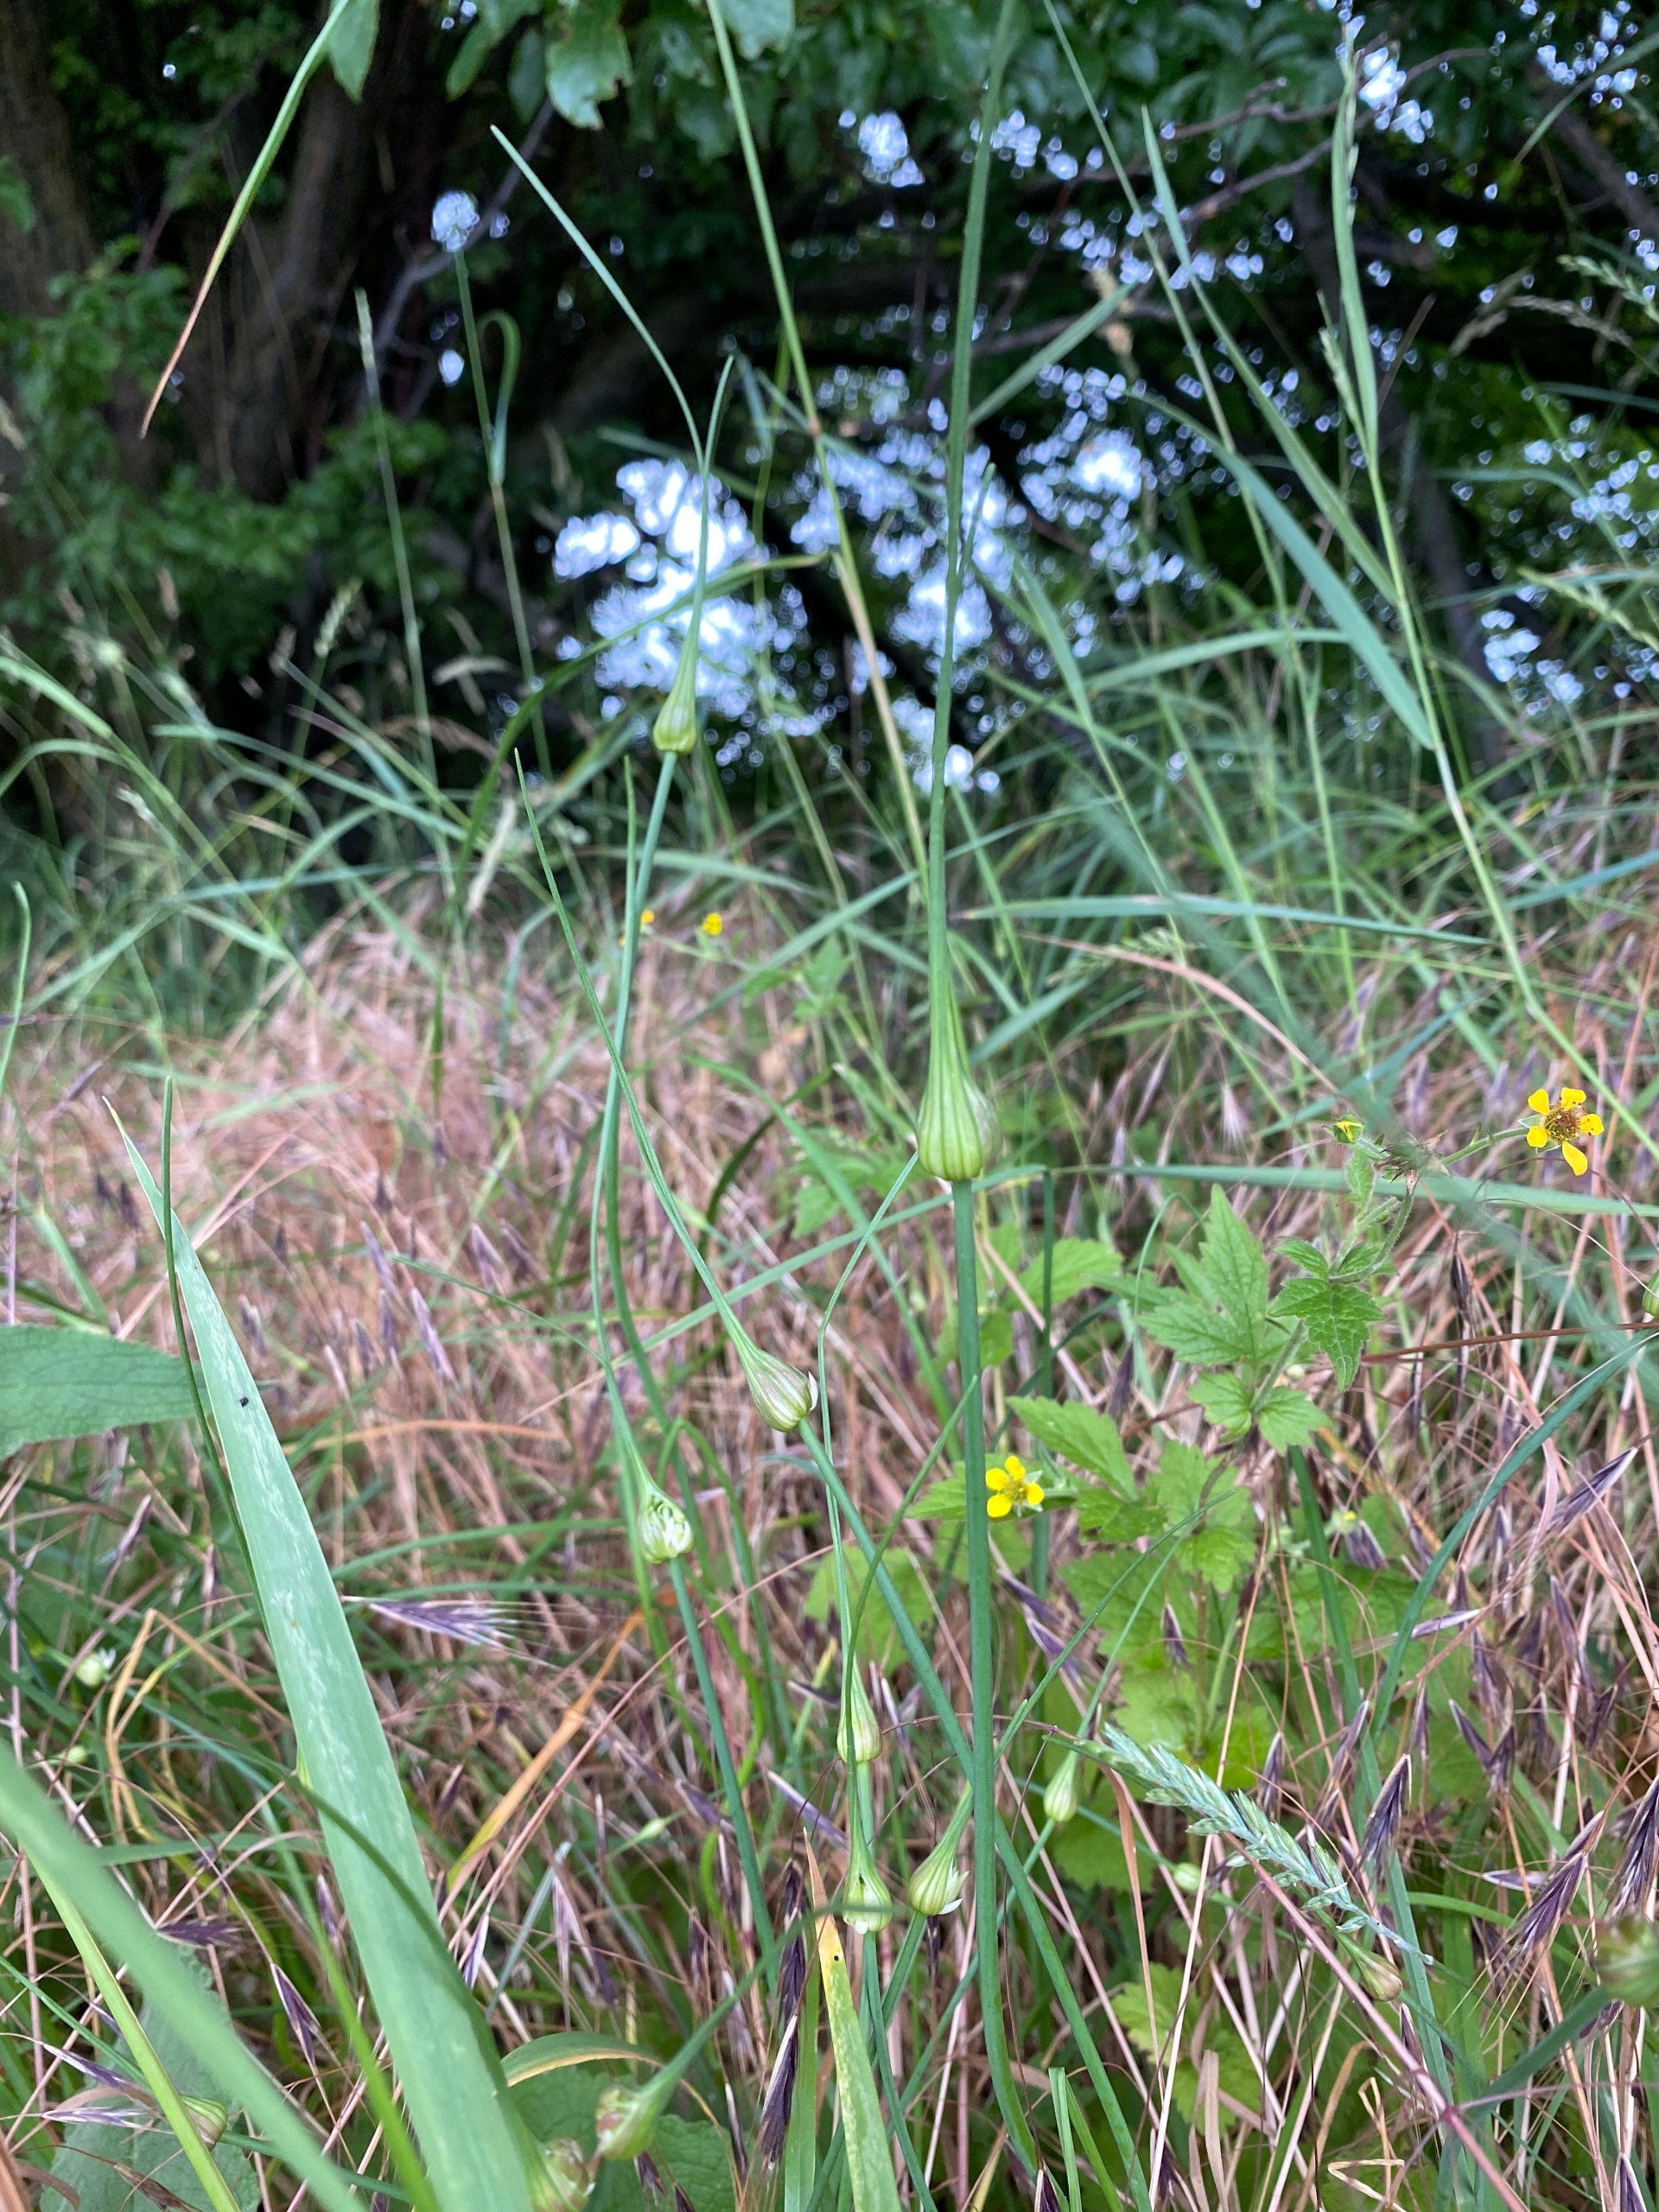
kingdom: Plantae
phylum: Tracheophyta
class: Liliopsida
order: Asparagales
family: Amaryllidaceae
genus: Allium
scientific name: Allium oleraceum
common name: Vild løg
